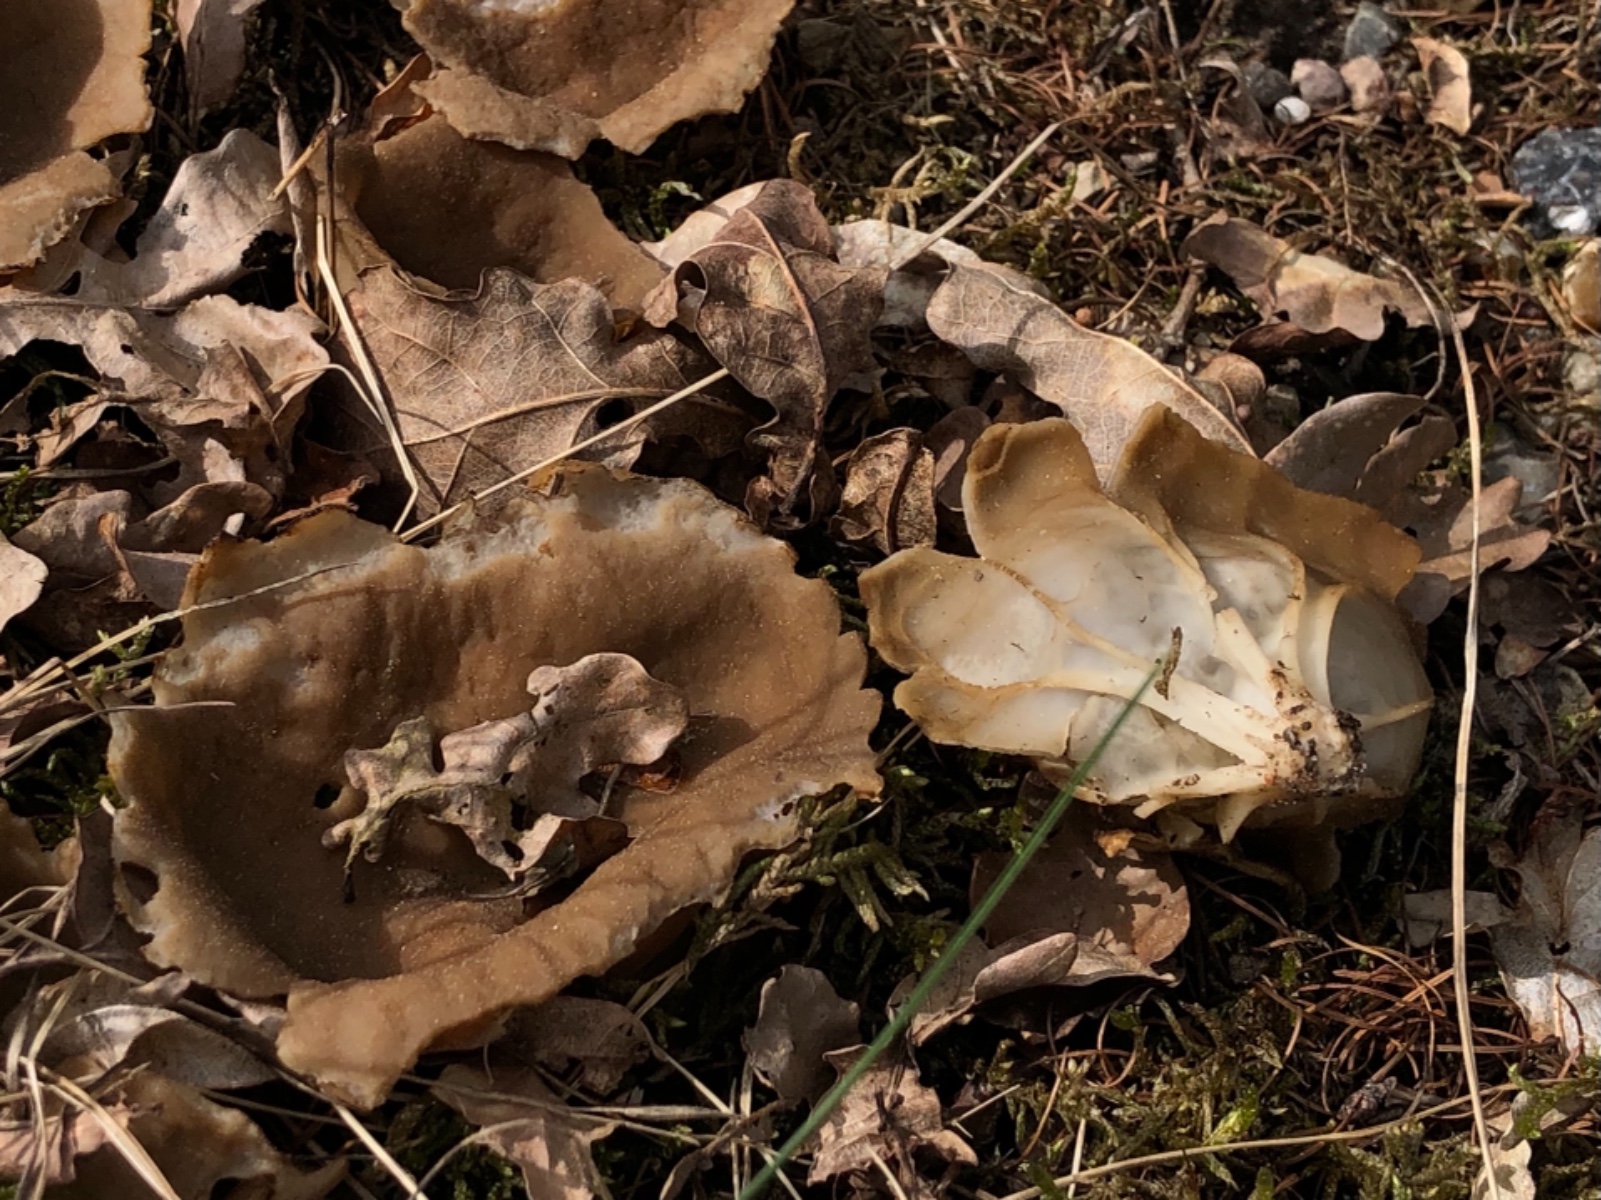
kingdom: Fungi
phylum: Ascomycota
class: Pezizomycetes
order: Pezizales
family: Helvellaceae
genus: Helvella
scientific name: Helvella acetabulum
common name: pokal-foldhat
